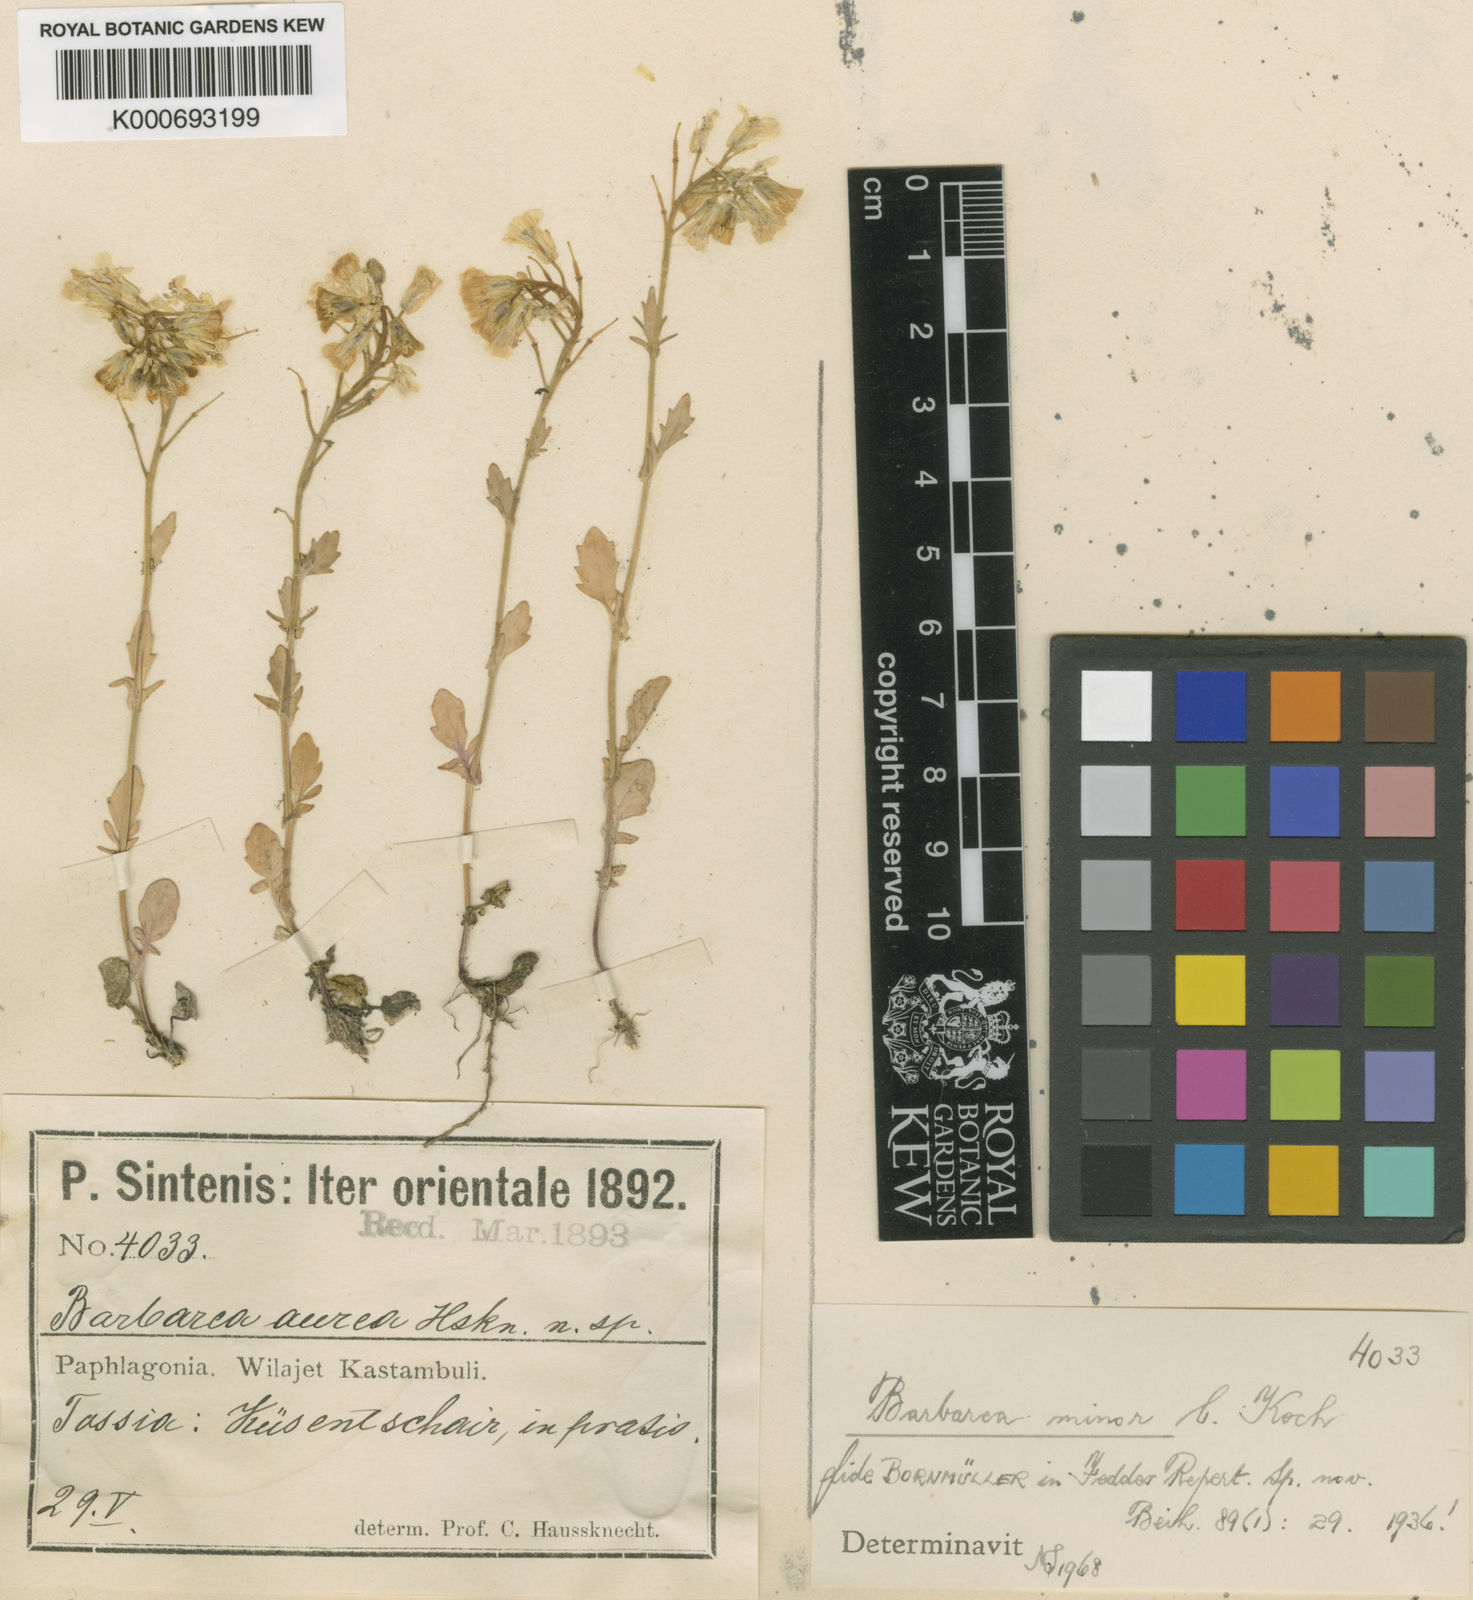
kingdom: Plantae
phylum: Tracheophyta
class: Magnoliopsida
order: Brassicales
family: Brassicaceae
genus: Barbarea
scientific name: Barbarea brachycarpa
